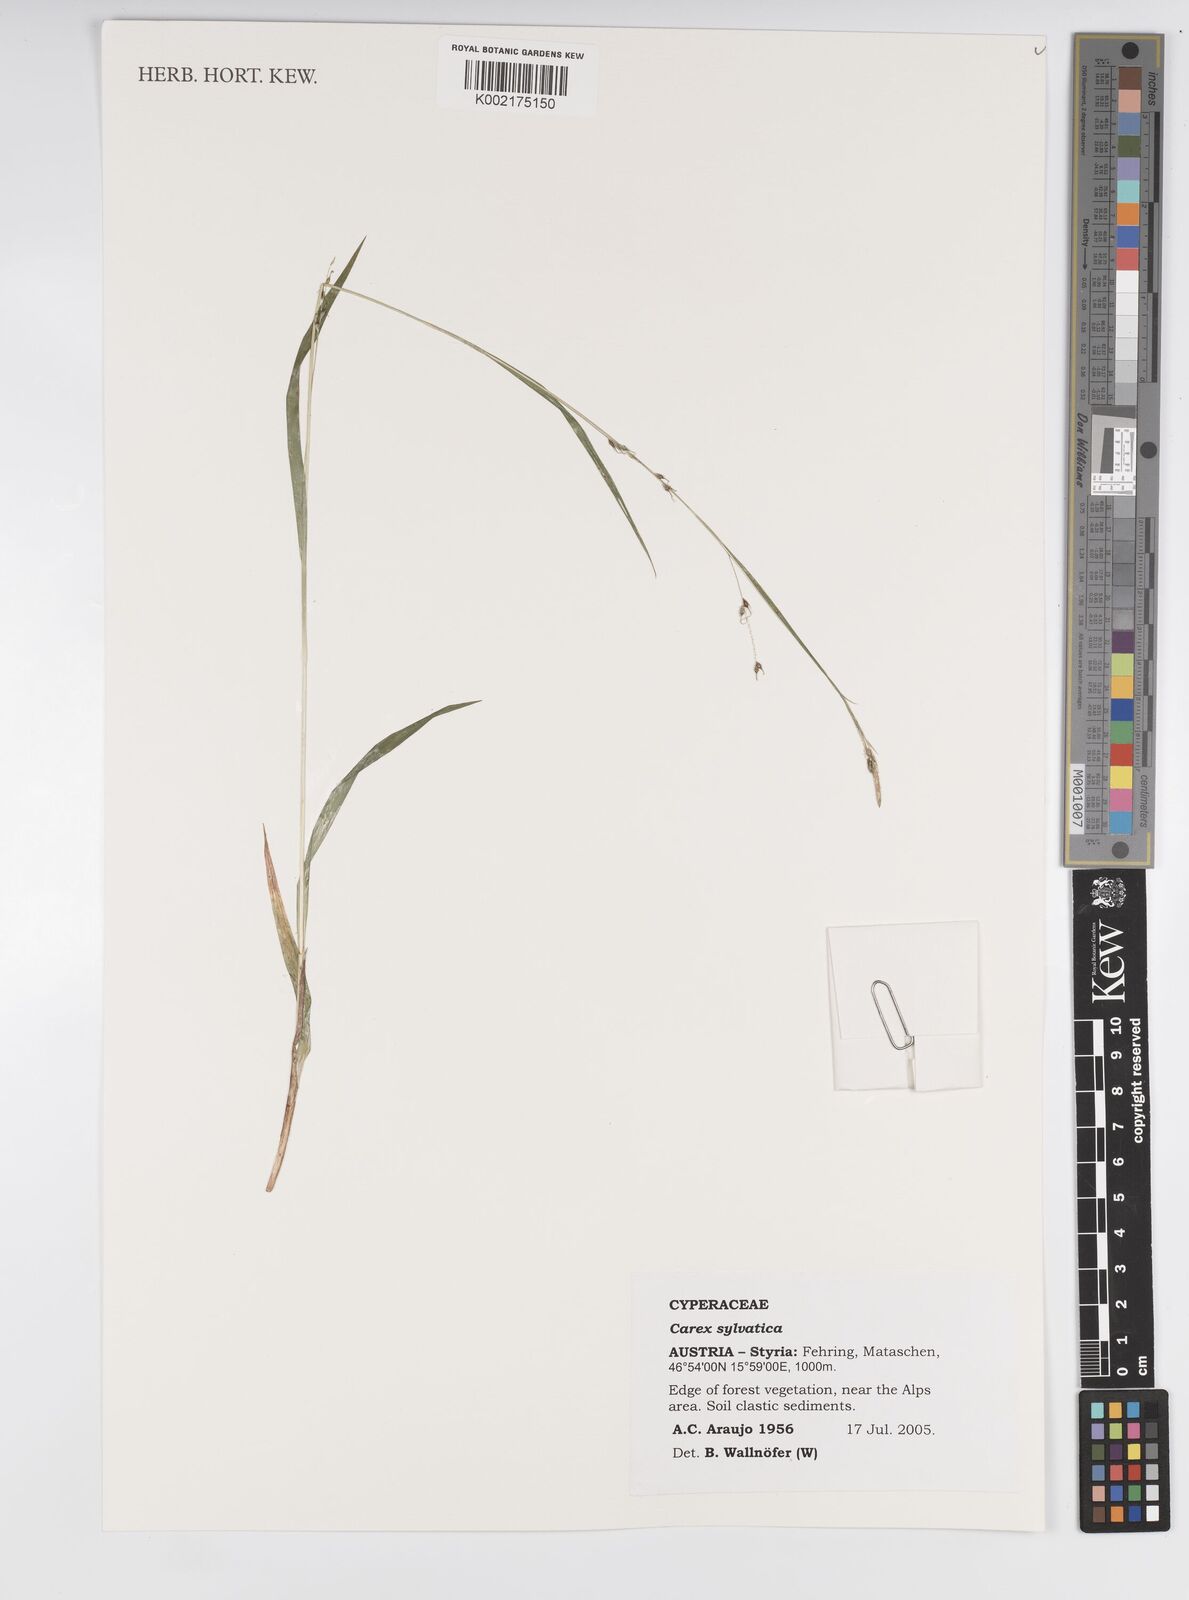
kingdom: Plantae
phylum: Tracheophyta
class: Liliopsida
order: Poales
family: Cyperaceae
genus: Carex
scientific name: Carex sylvatica
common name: Wood-sedge
